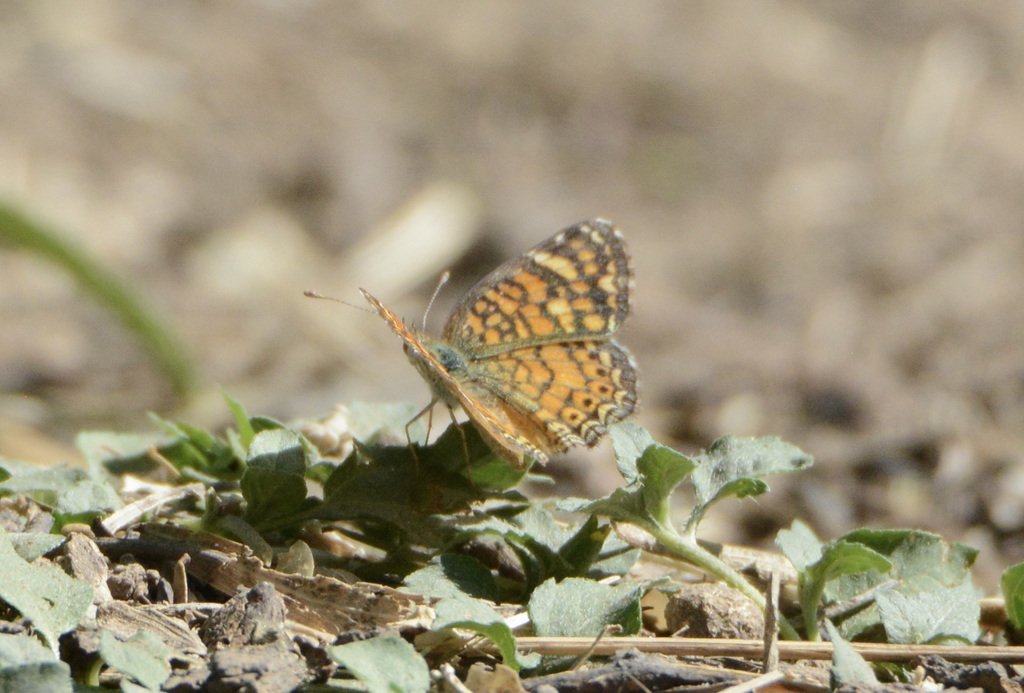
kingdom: Animalia
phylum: Arthropoda
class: Insecta
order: Lepidoptera
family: Nymphalidae
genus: Phyciodes
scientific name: Phyciodes vesta
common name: Vesta Crescent
